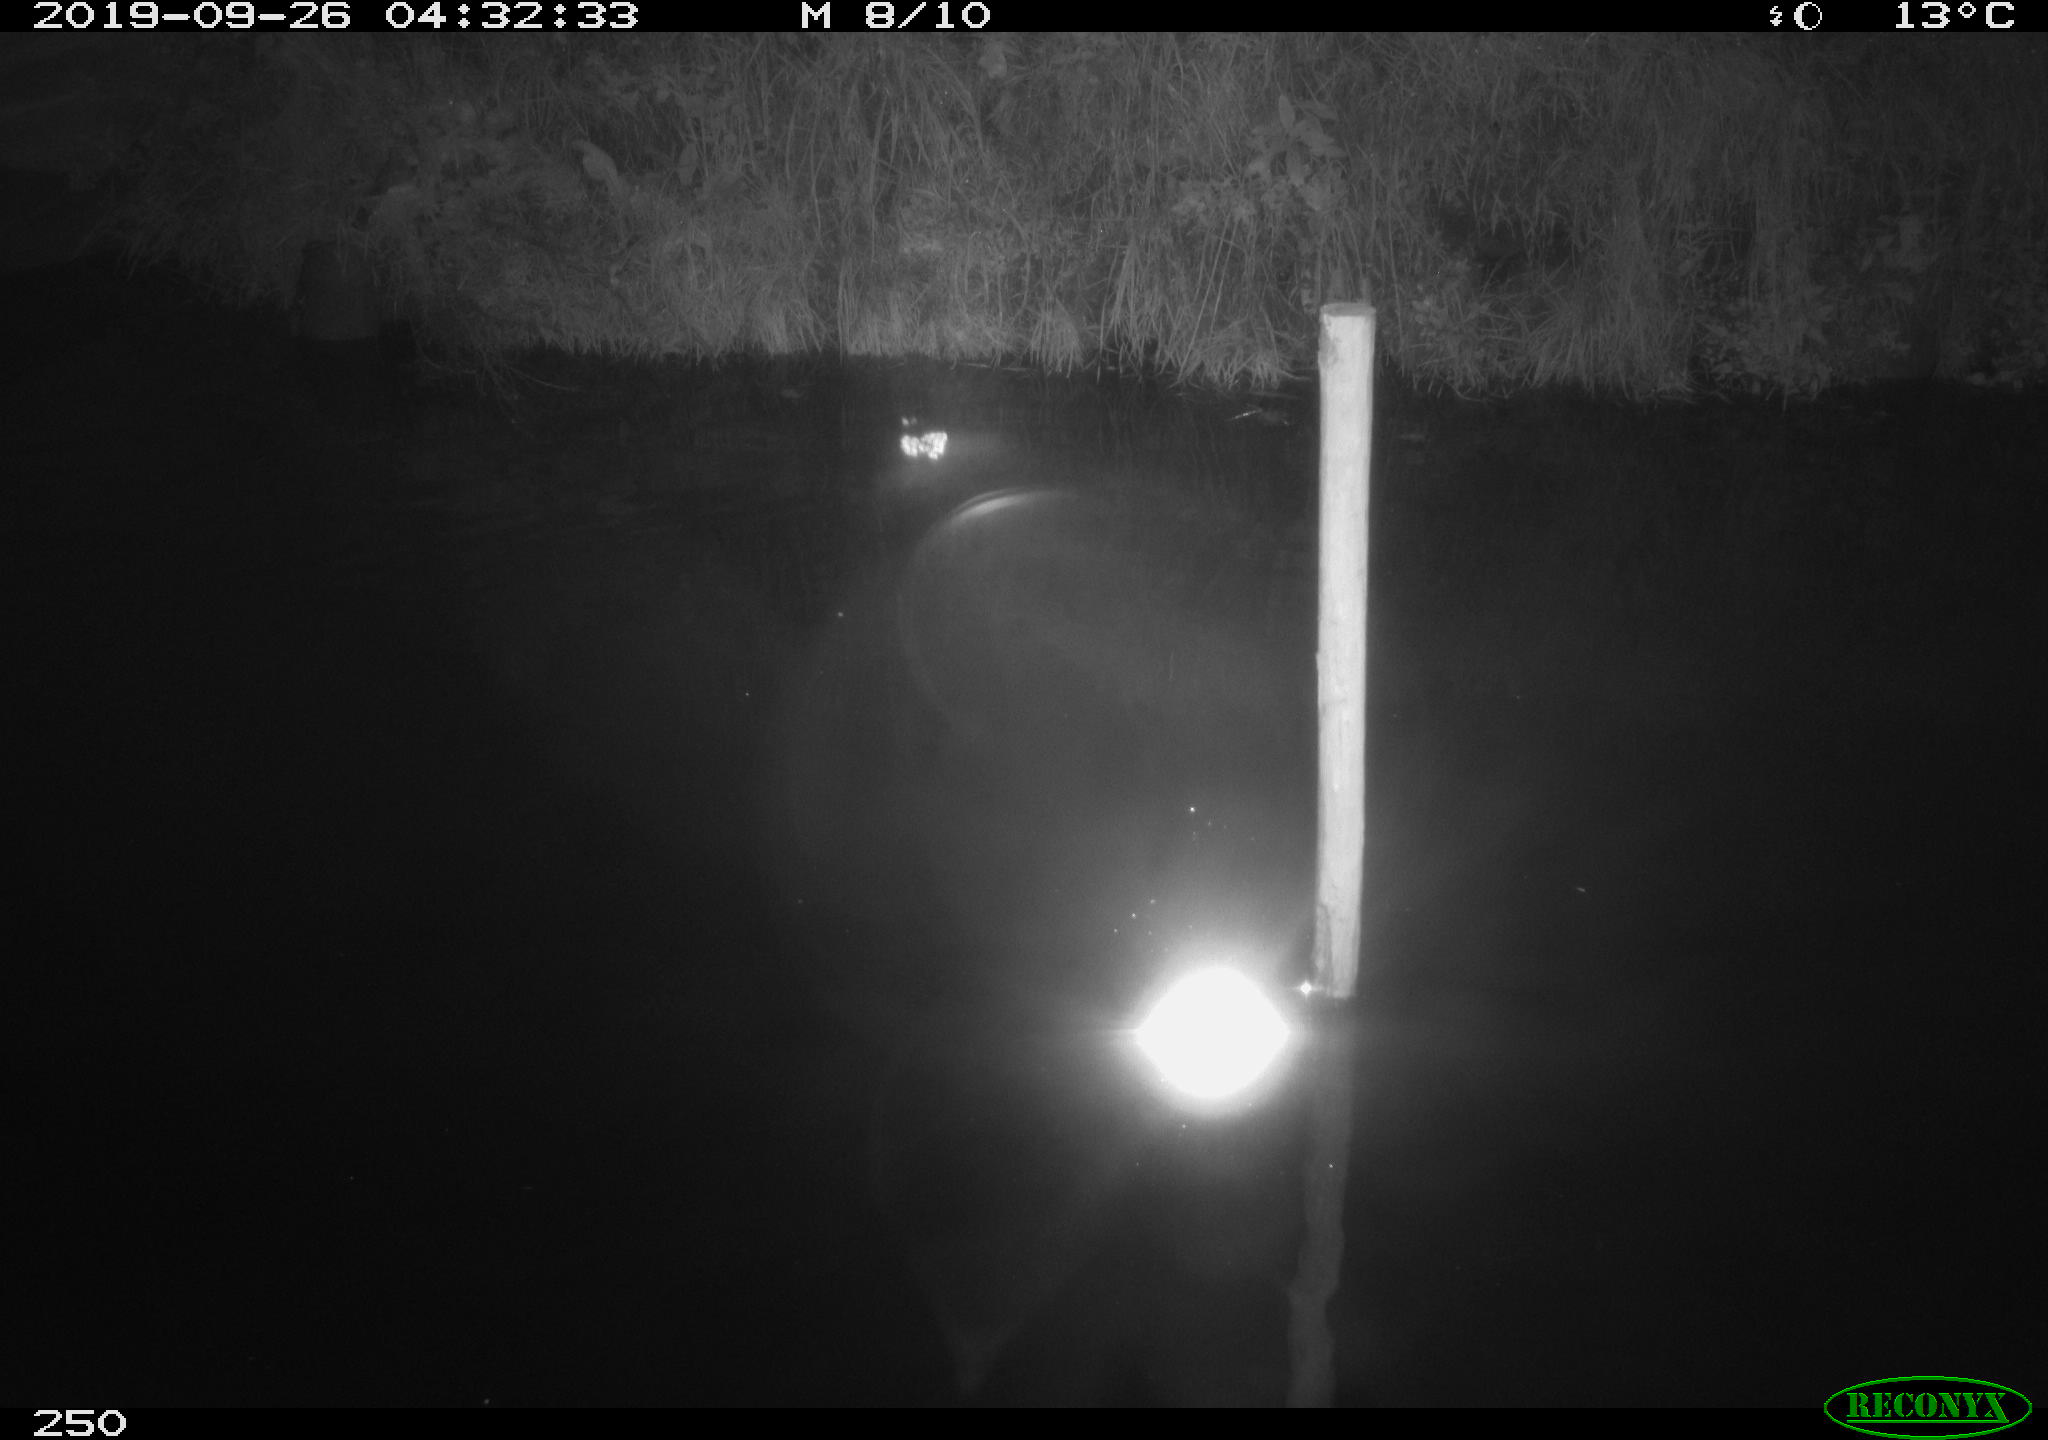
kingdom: Animalia
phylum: Chordata
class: Aves
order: Anseriformes
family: Anatidae
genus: Anas
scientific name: Anas platyrhynchos
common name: Mallard
